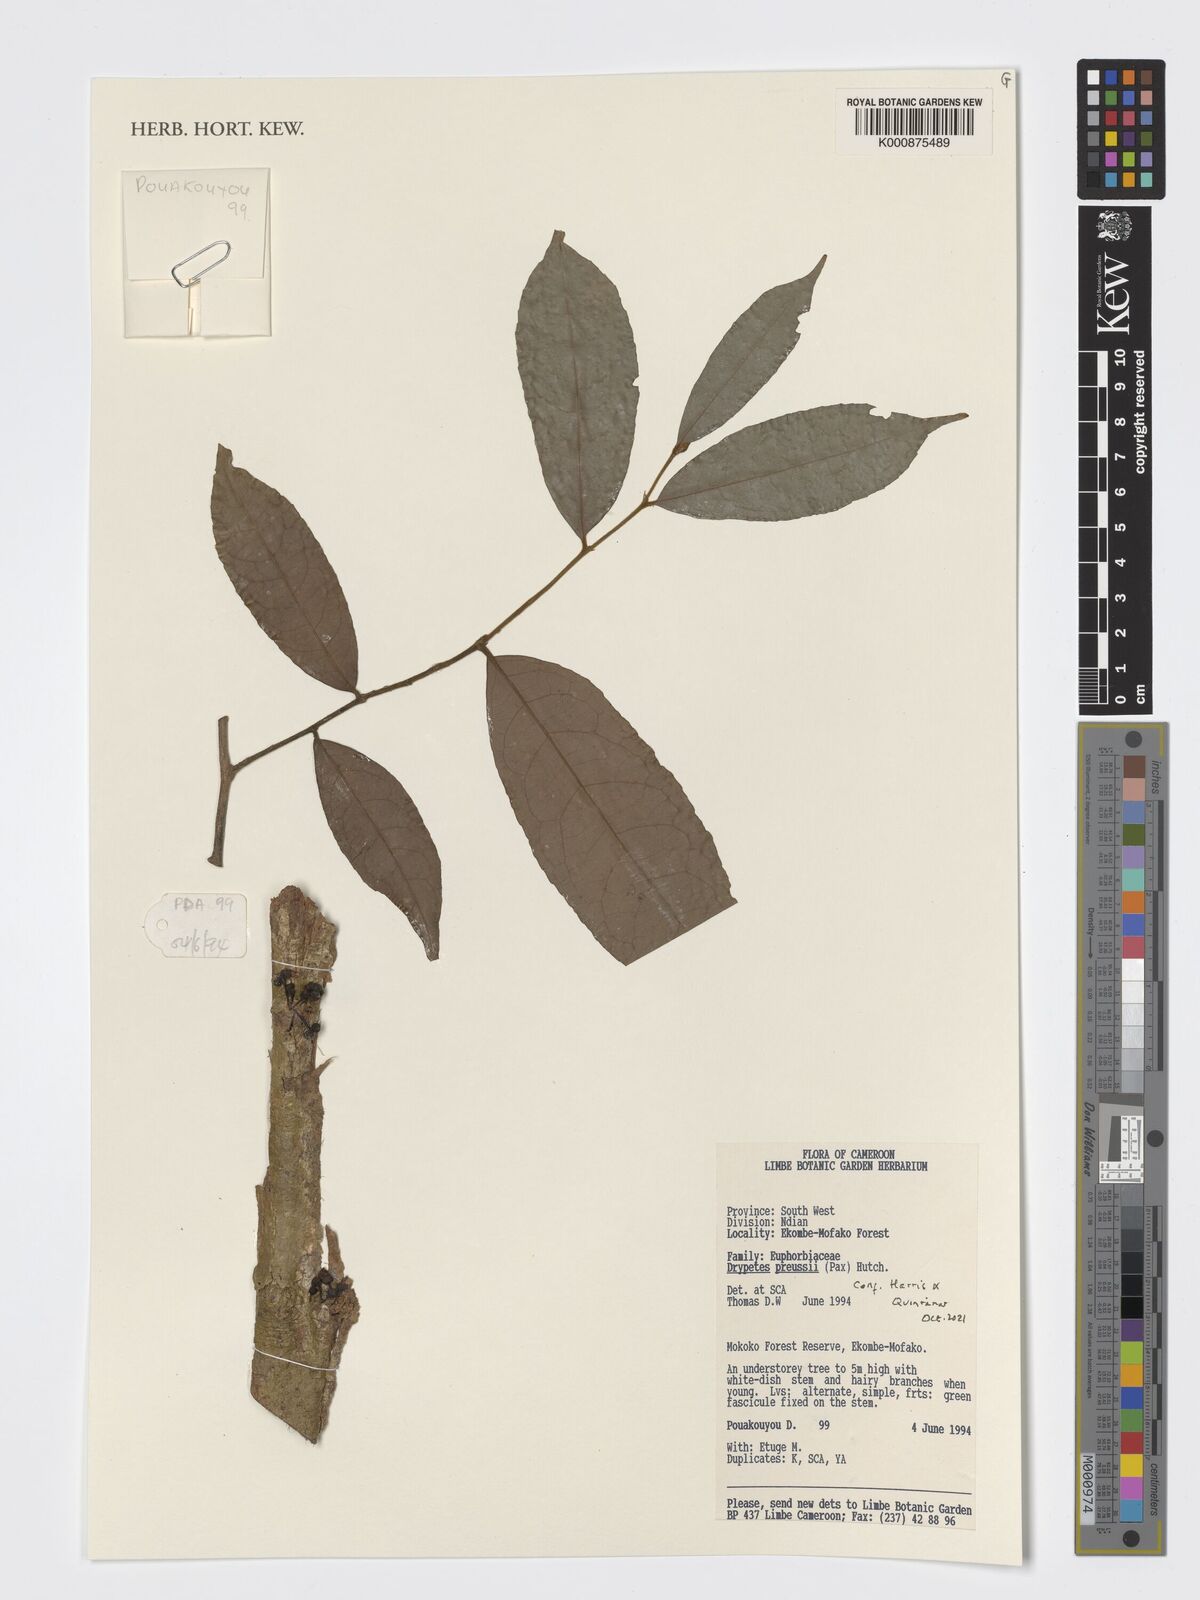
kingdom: Plantae
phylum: Tracheophyta
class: Magnoliopsida
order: Malpighiales
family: Putranjivaceae
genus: Drypetes
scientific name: Drypetes preussii
